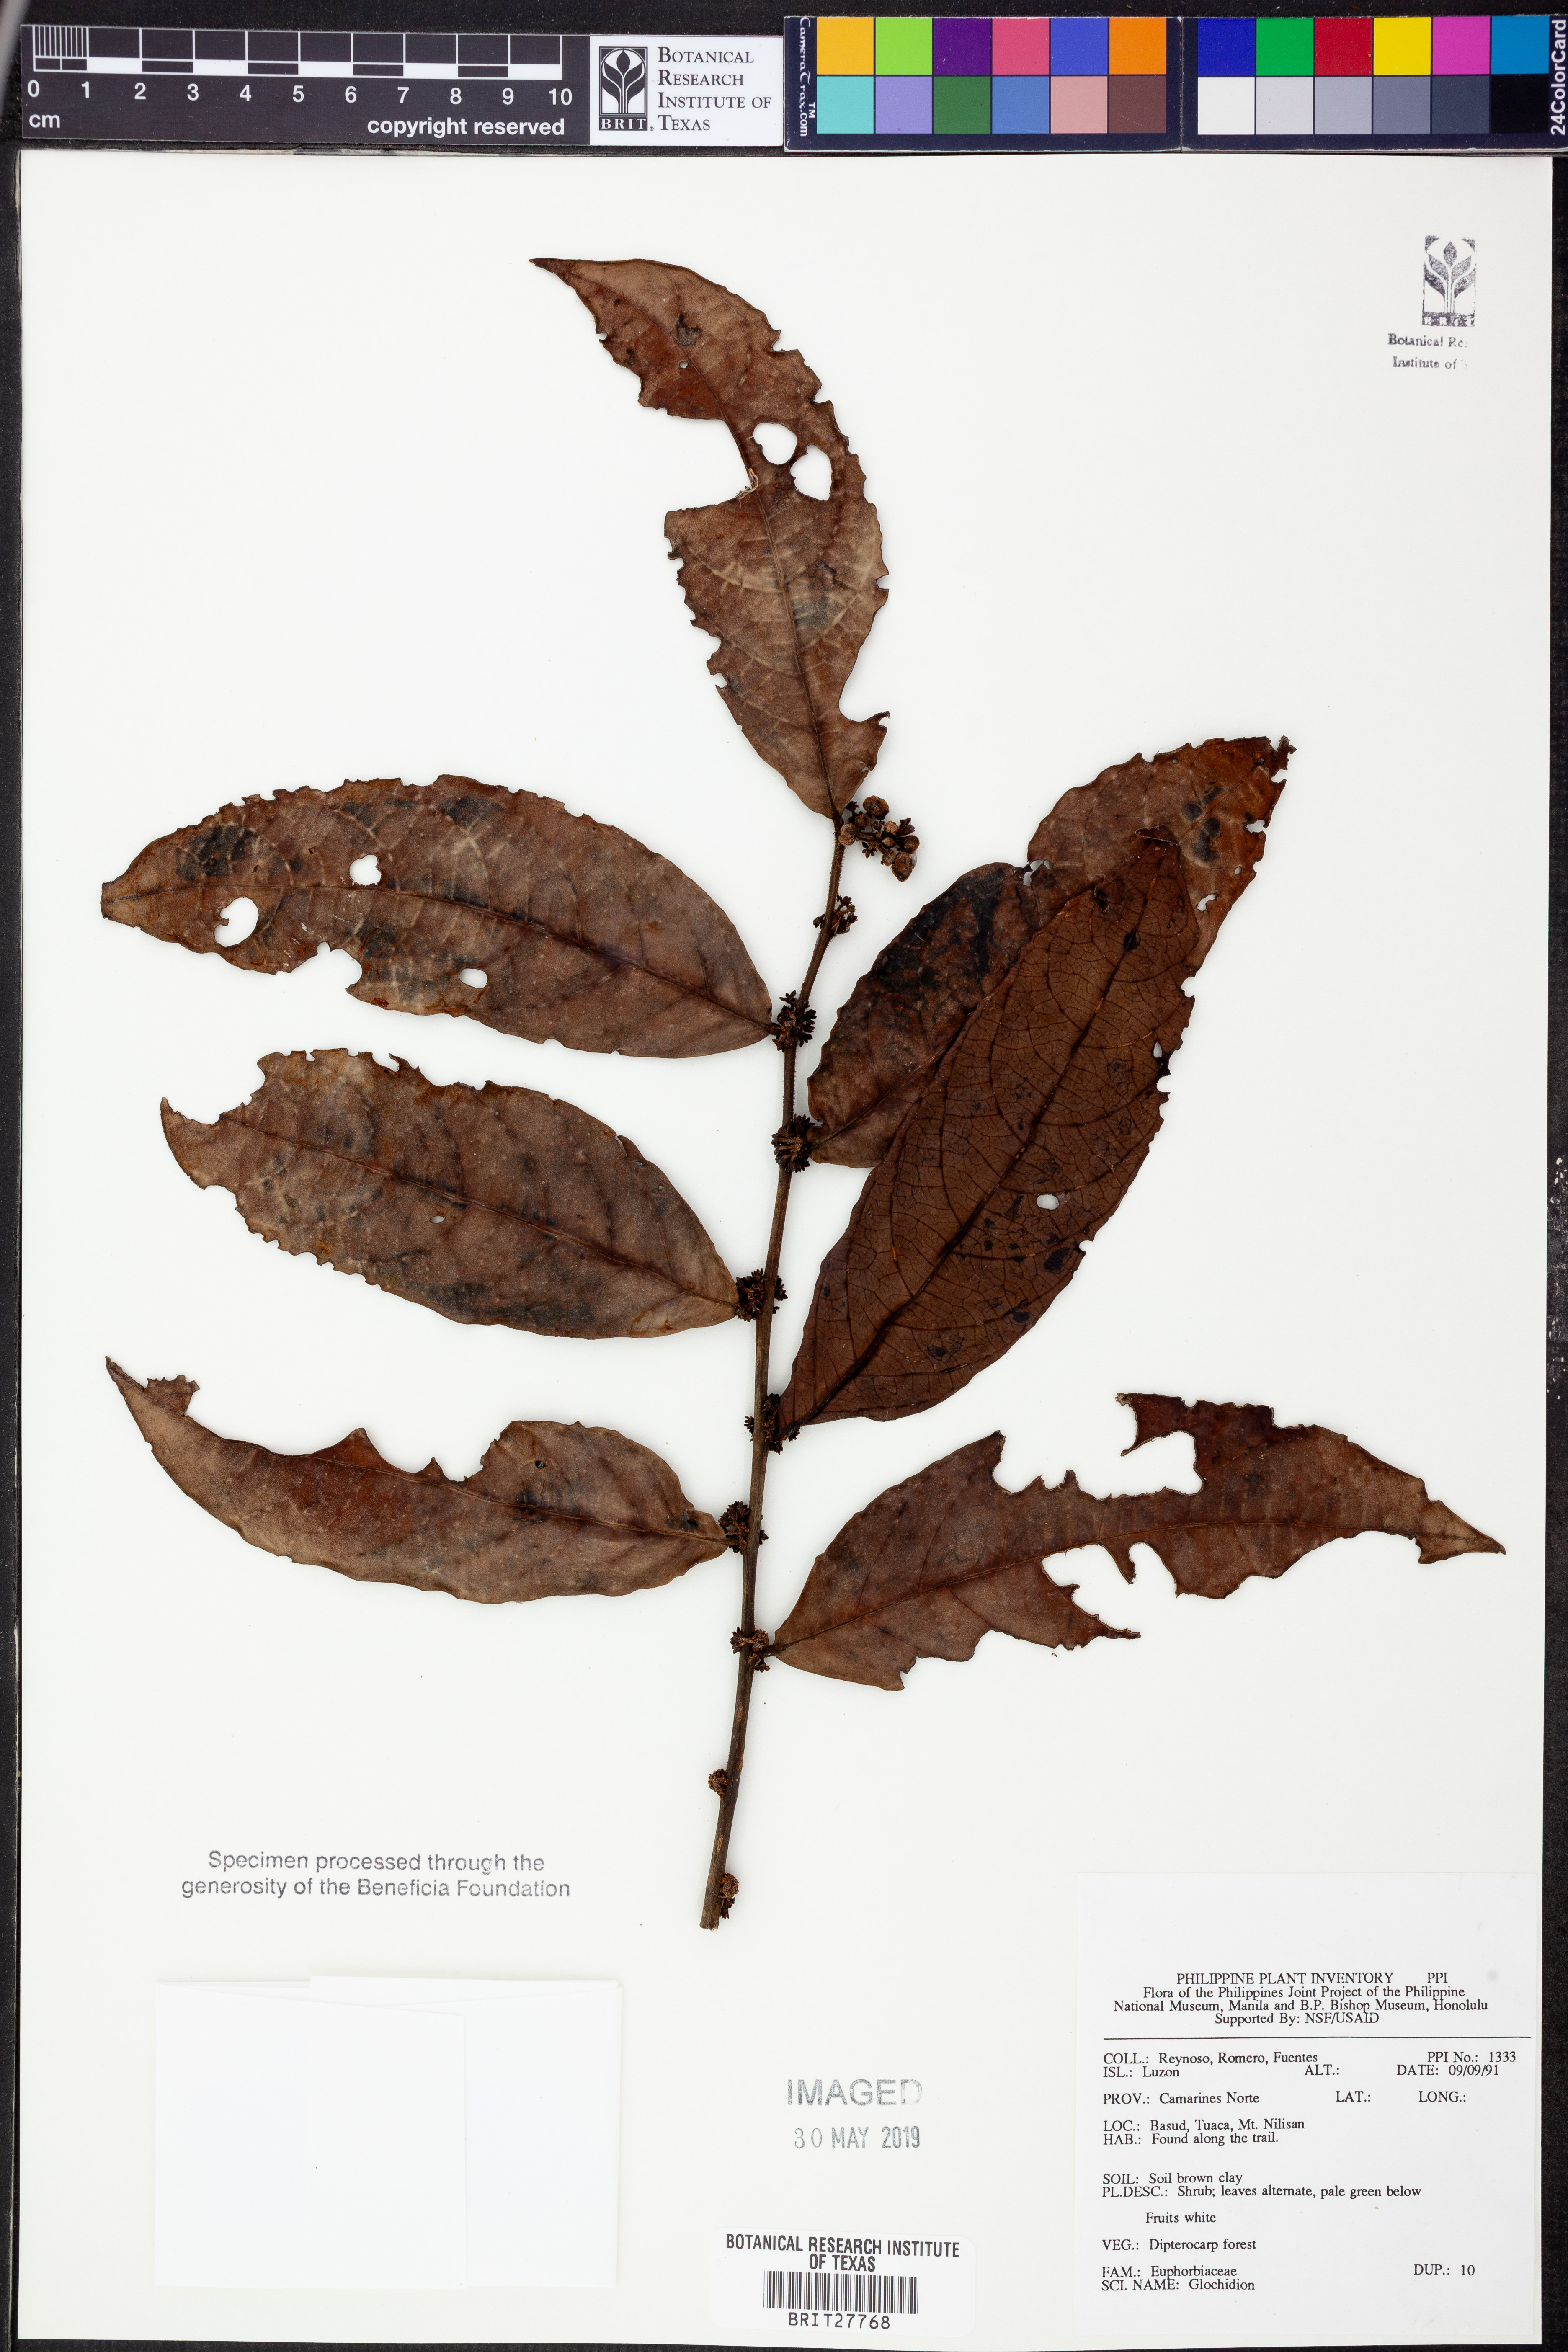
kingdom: Plantae
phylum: Tracheophyta
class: Magnoliopsida
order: Malpighiales
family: Phyllanthaceae
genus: Glochidion
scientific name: Glochidion
